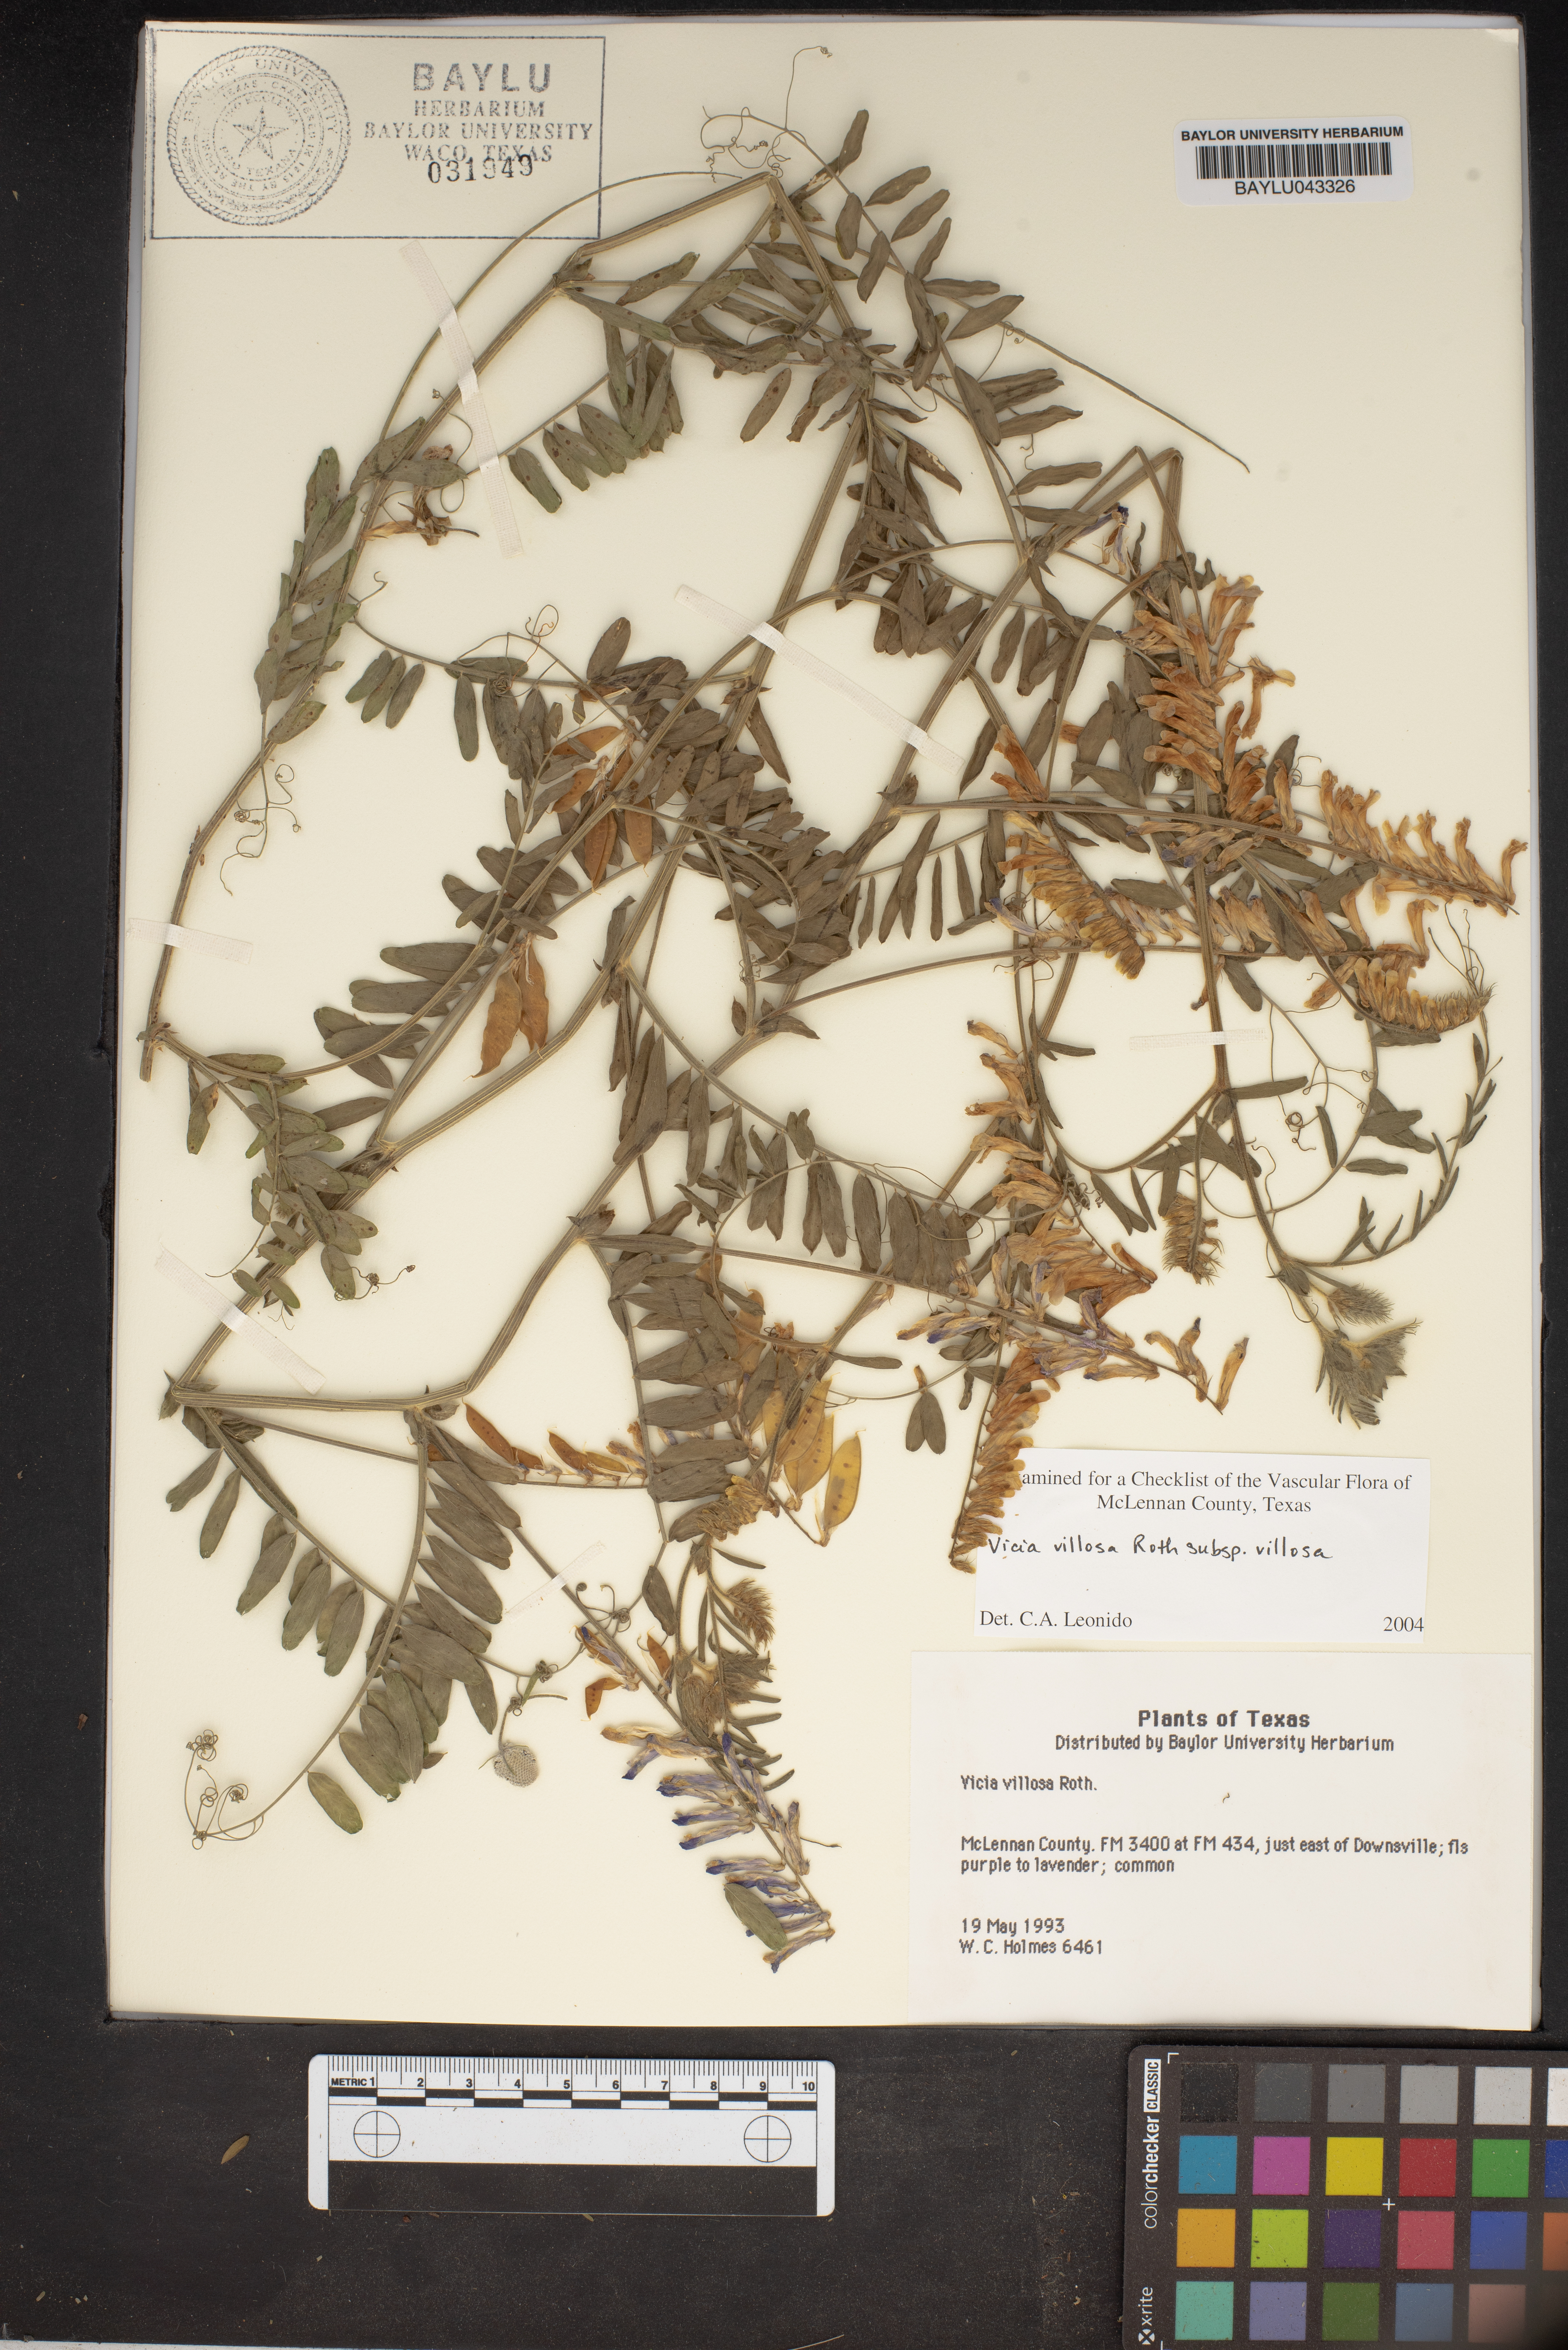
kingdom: Plantae
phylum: Tracheophyta
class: Magnoliopsida
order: Fabales
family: Fabaceae
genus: Vicia
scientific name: Vicia villosa
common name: Fodder vetch
